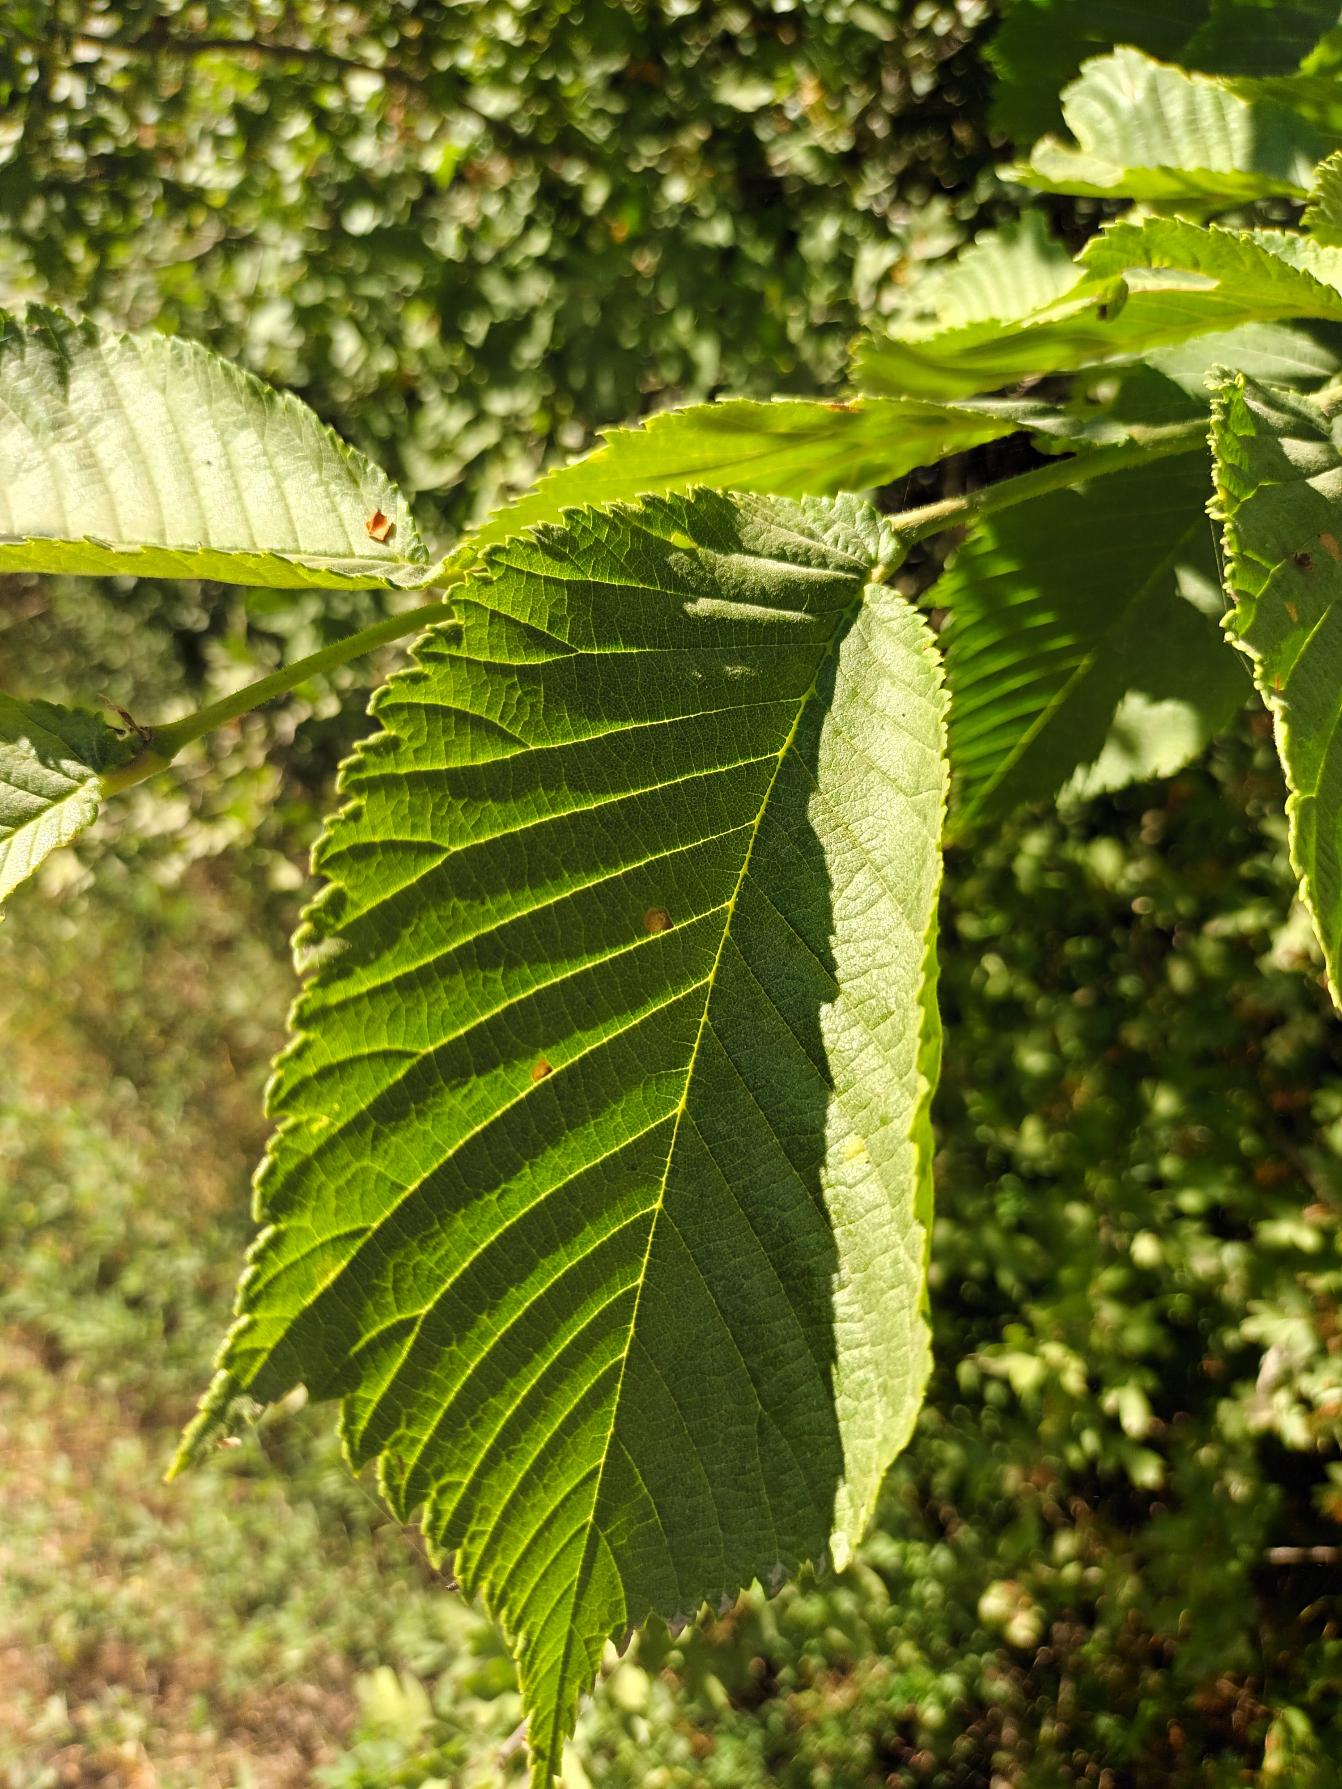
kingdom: Plantae
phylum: Tracheophyta
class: Magnoliopsida
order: Rosales
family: Ulmaceae
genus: Ulmus
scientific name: Ulmus hollandica
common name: Hollandsk elm
